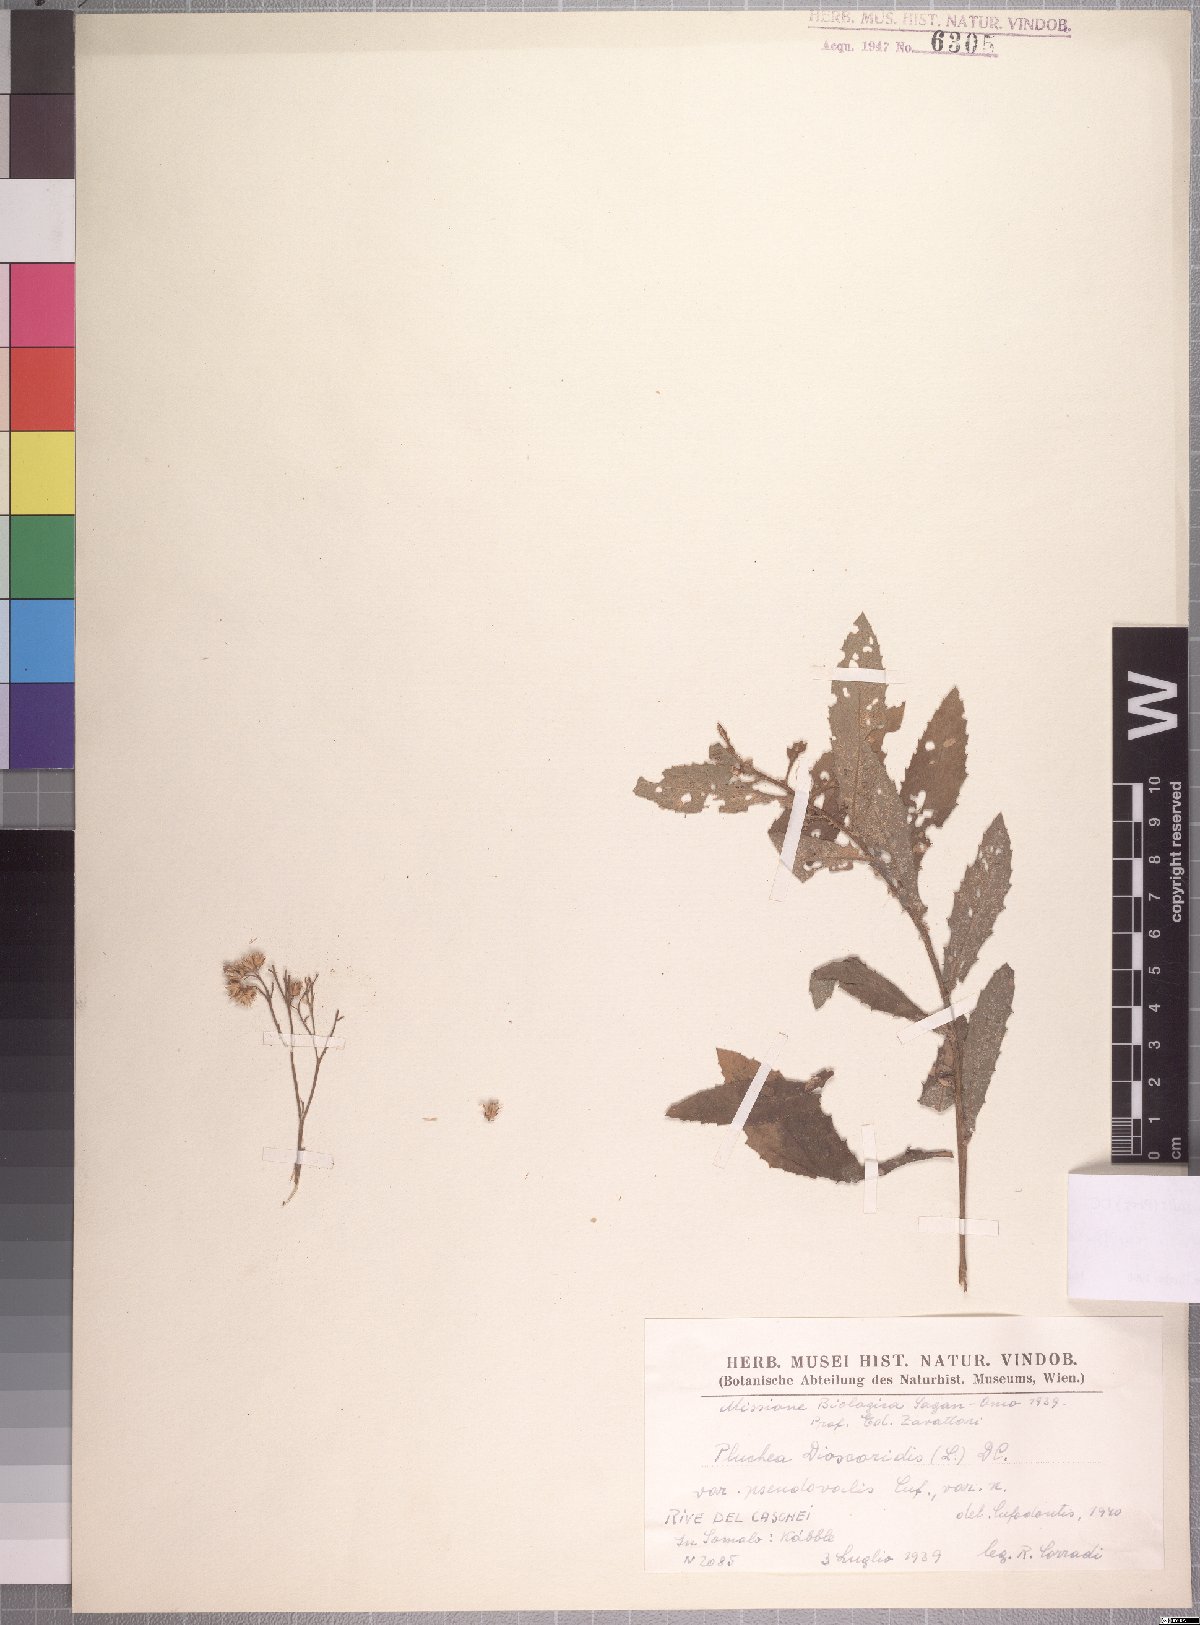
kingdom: Plantae
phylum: Tracheophyta
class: Magnoliopsida
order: Asterales
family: Asteraceae
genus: Pluchea
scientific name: Pluchea ovalis
